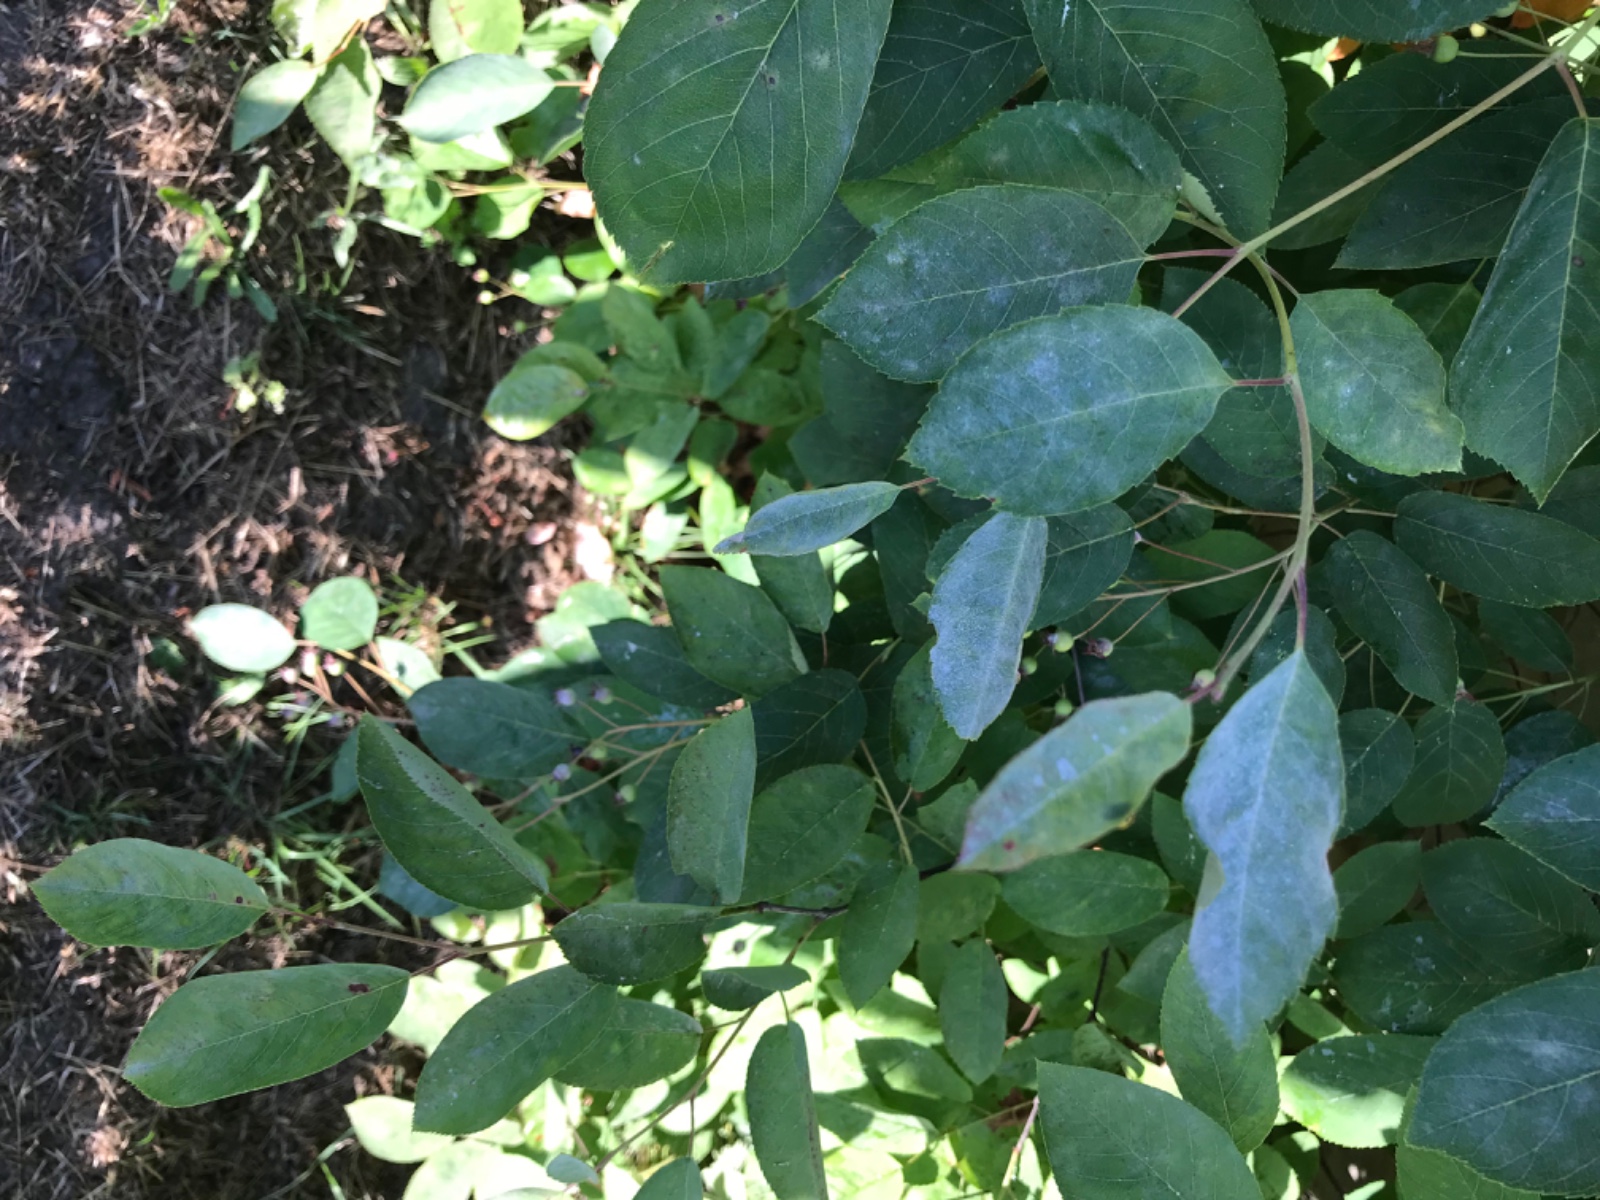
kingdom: Fungi
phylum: Ascomycota
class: Leotiomycetes
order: Helotiales
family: Erysiphaceae
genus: Podosphaera
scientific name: Podosphaera amelanchieris
